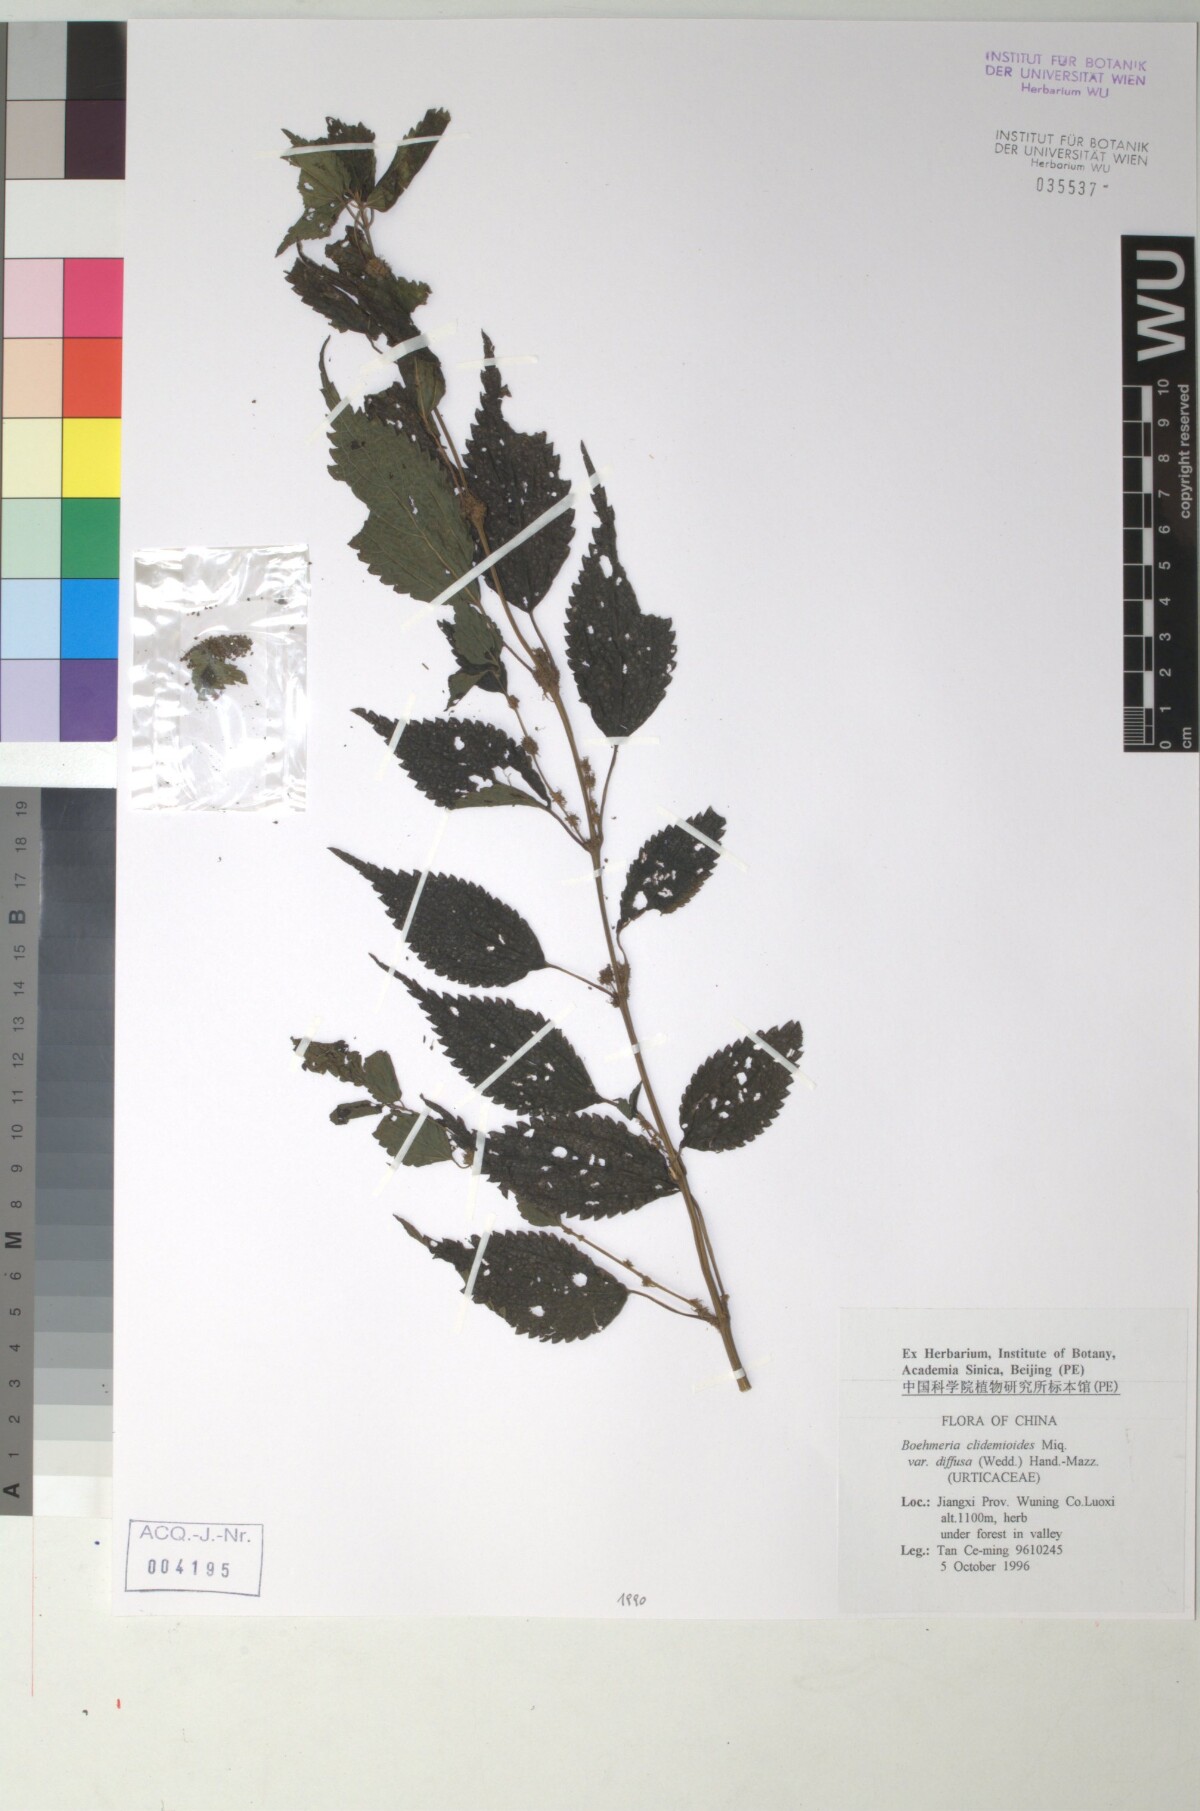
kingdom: Plantae
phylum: Tracheophyta
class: Magnoliopsida
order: Rosales
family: Urticaceae
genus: Boehmeria
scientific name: Boehmeria clidemioides
